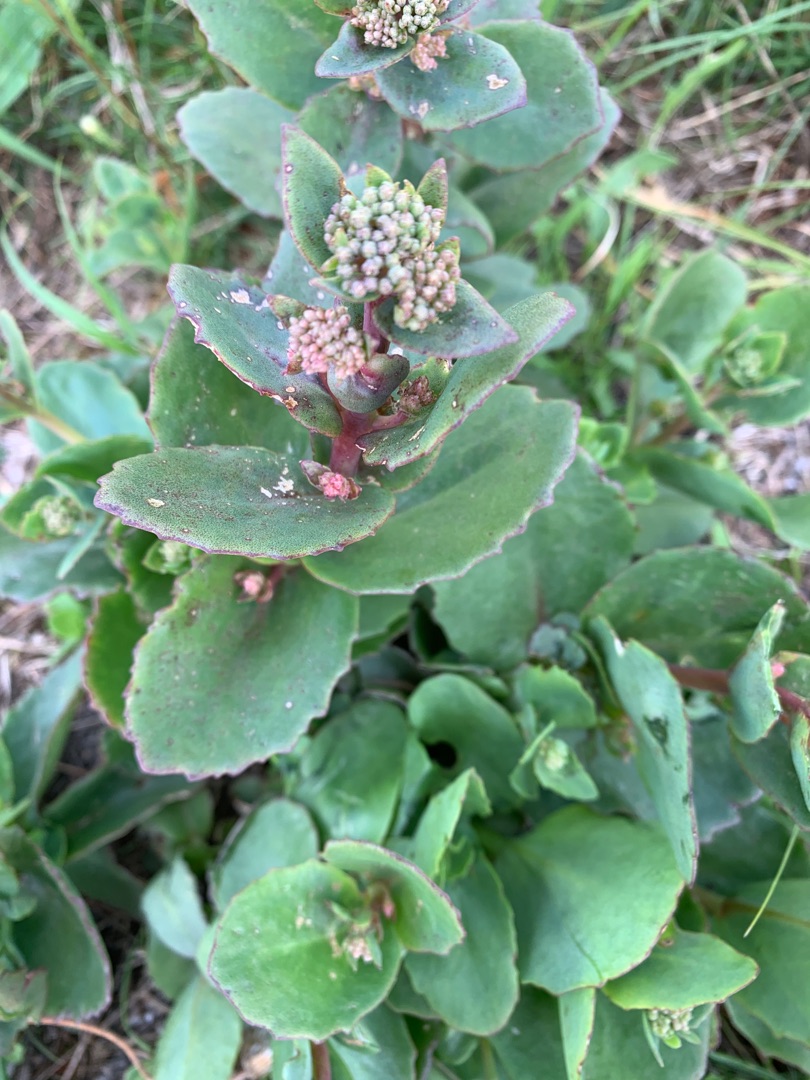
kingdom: Plantae
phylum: Tracheophyta
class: Magnoliopsida
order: Saxifragales
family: Crassulaceae
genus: Hylotelephium
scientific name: Hylotelephium telephium
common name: Sankthansurt
